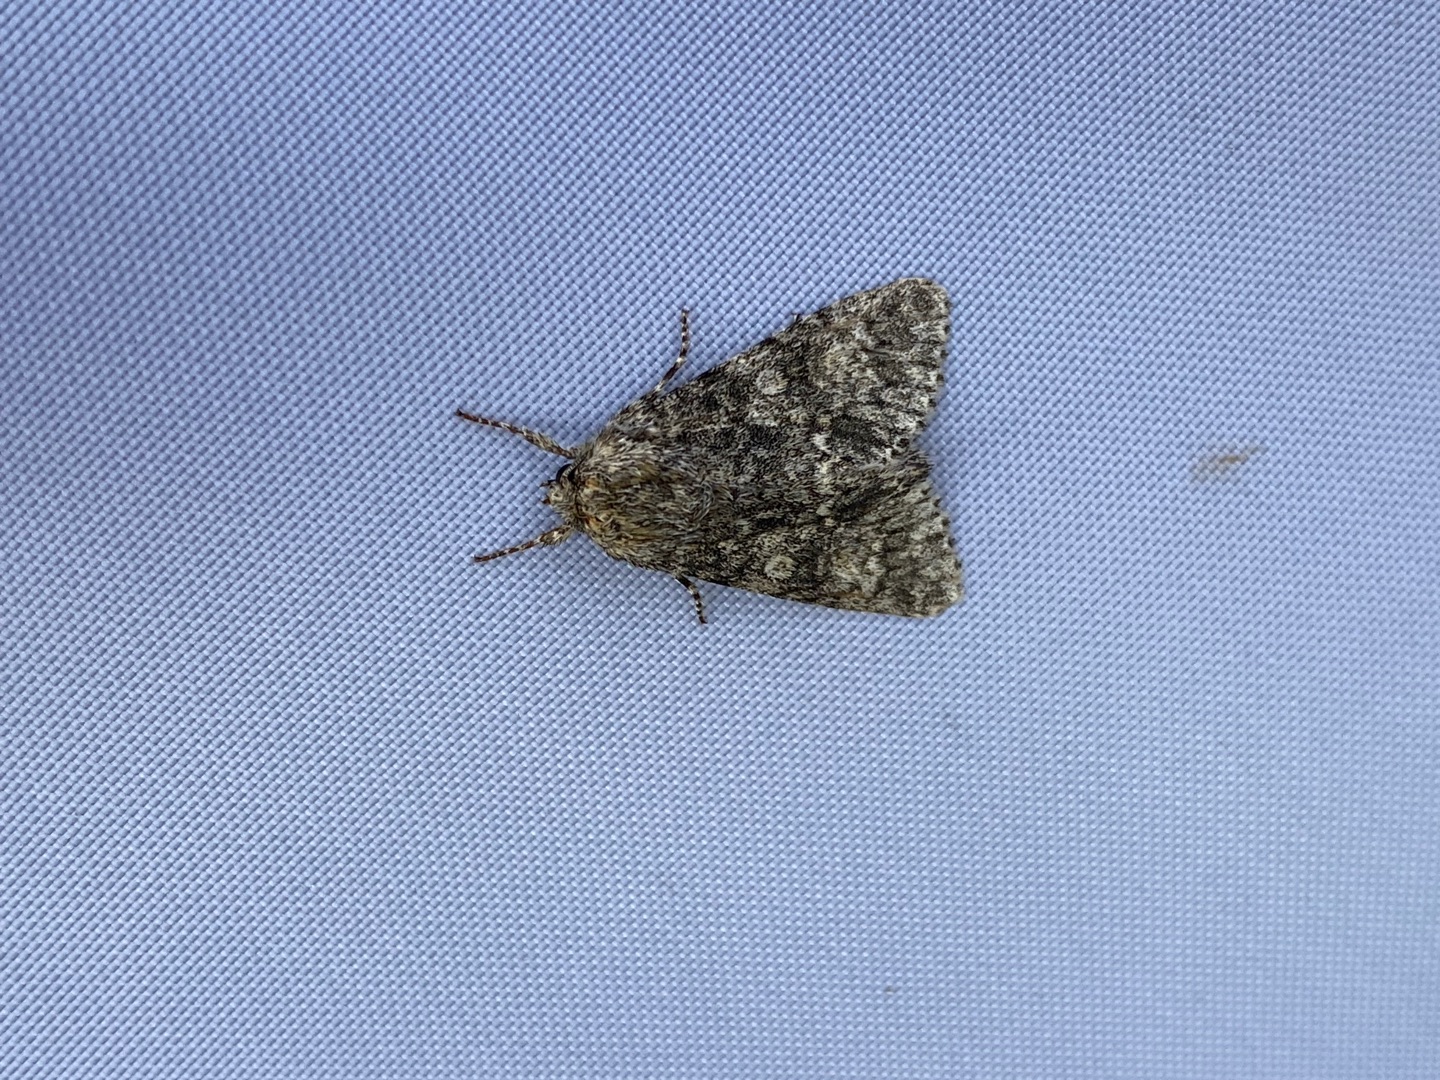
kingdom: Animalia
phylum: Arthropoda
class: Insecta
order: Lepidoptera
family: Noctuidae
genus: Acronicta
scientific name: Acronicta megacephala
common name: Poppelugle
